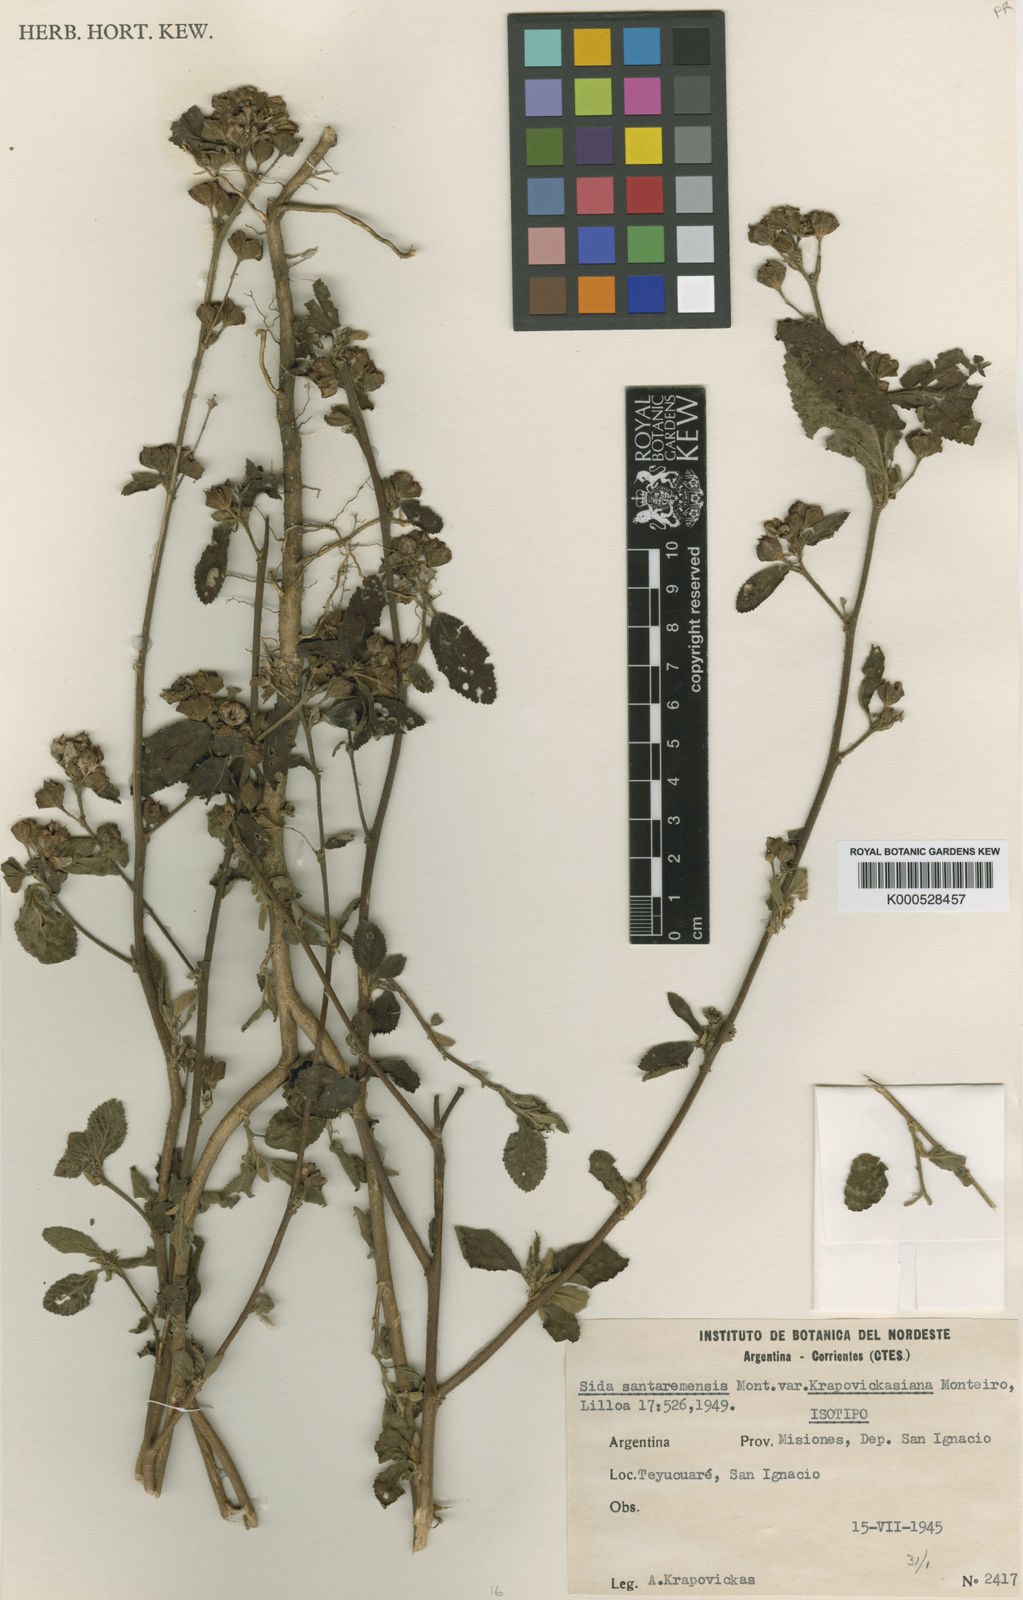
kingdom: Plantae
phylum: Tracheophyta
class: Magnoliopsida
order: Malvales
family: Malvaceae
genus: Sida
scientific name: Sida santaremensis
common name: Moth fanpetals
